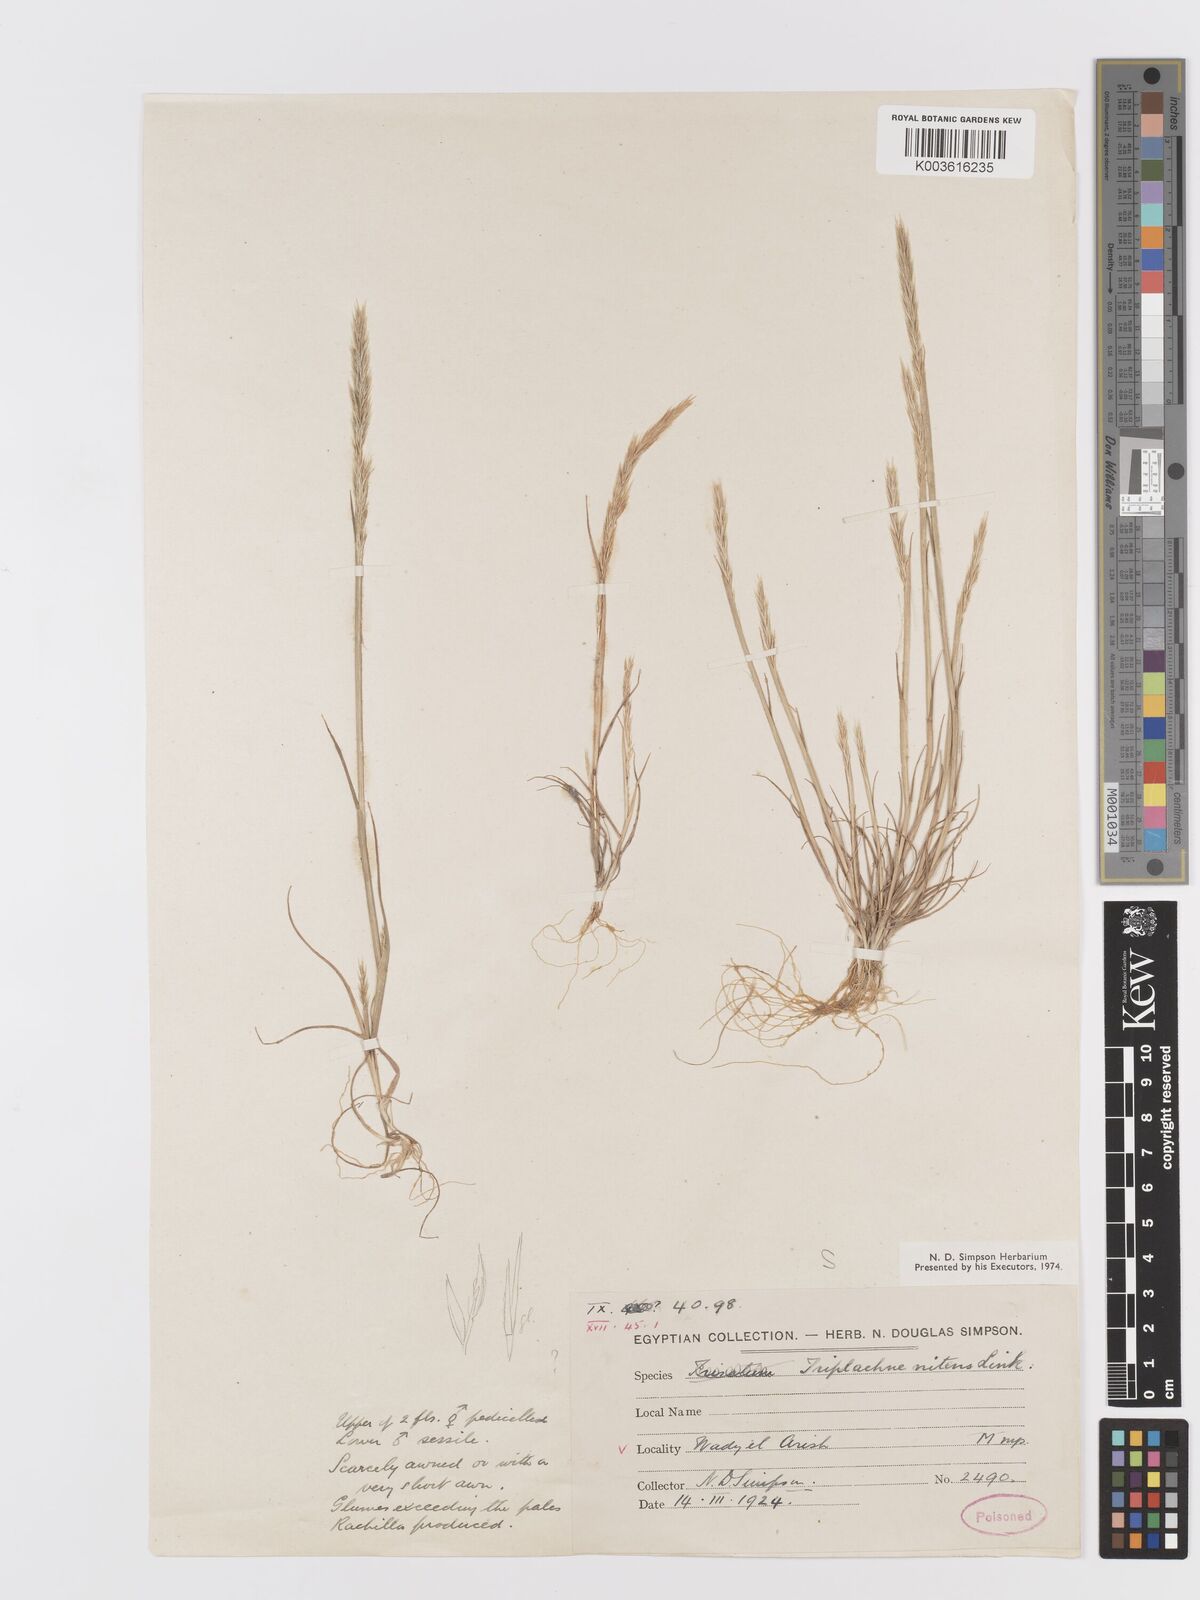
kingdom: Plantae
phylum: Tracheophyta
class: Liliopsida
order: Poales
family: Poaceae
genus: Trisetaria
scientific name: Trisetaria linearis
